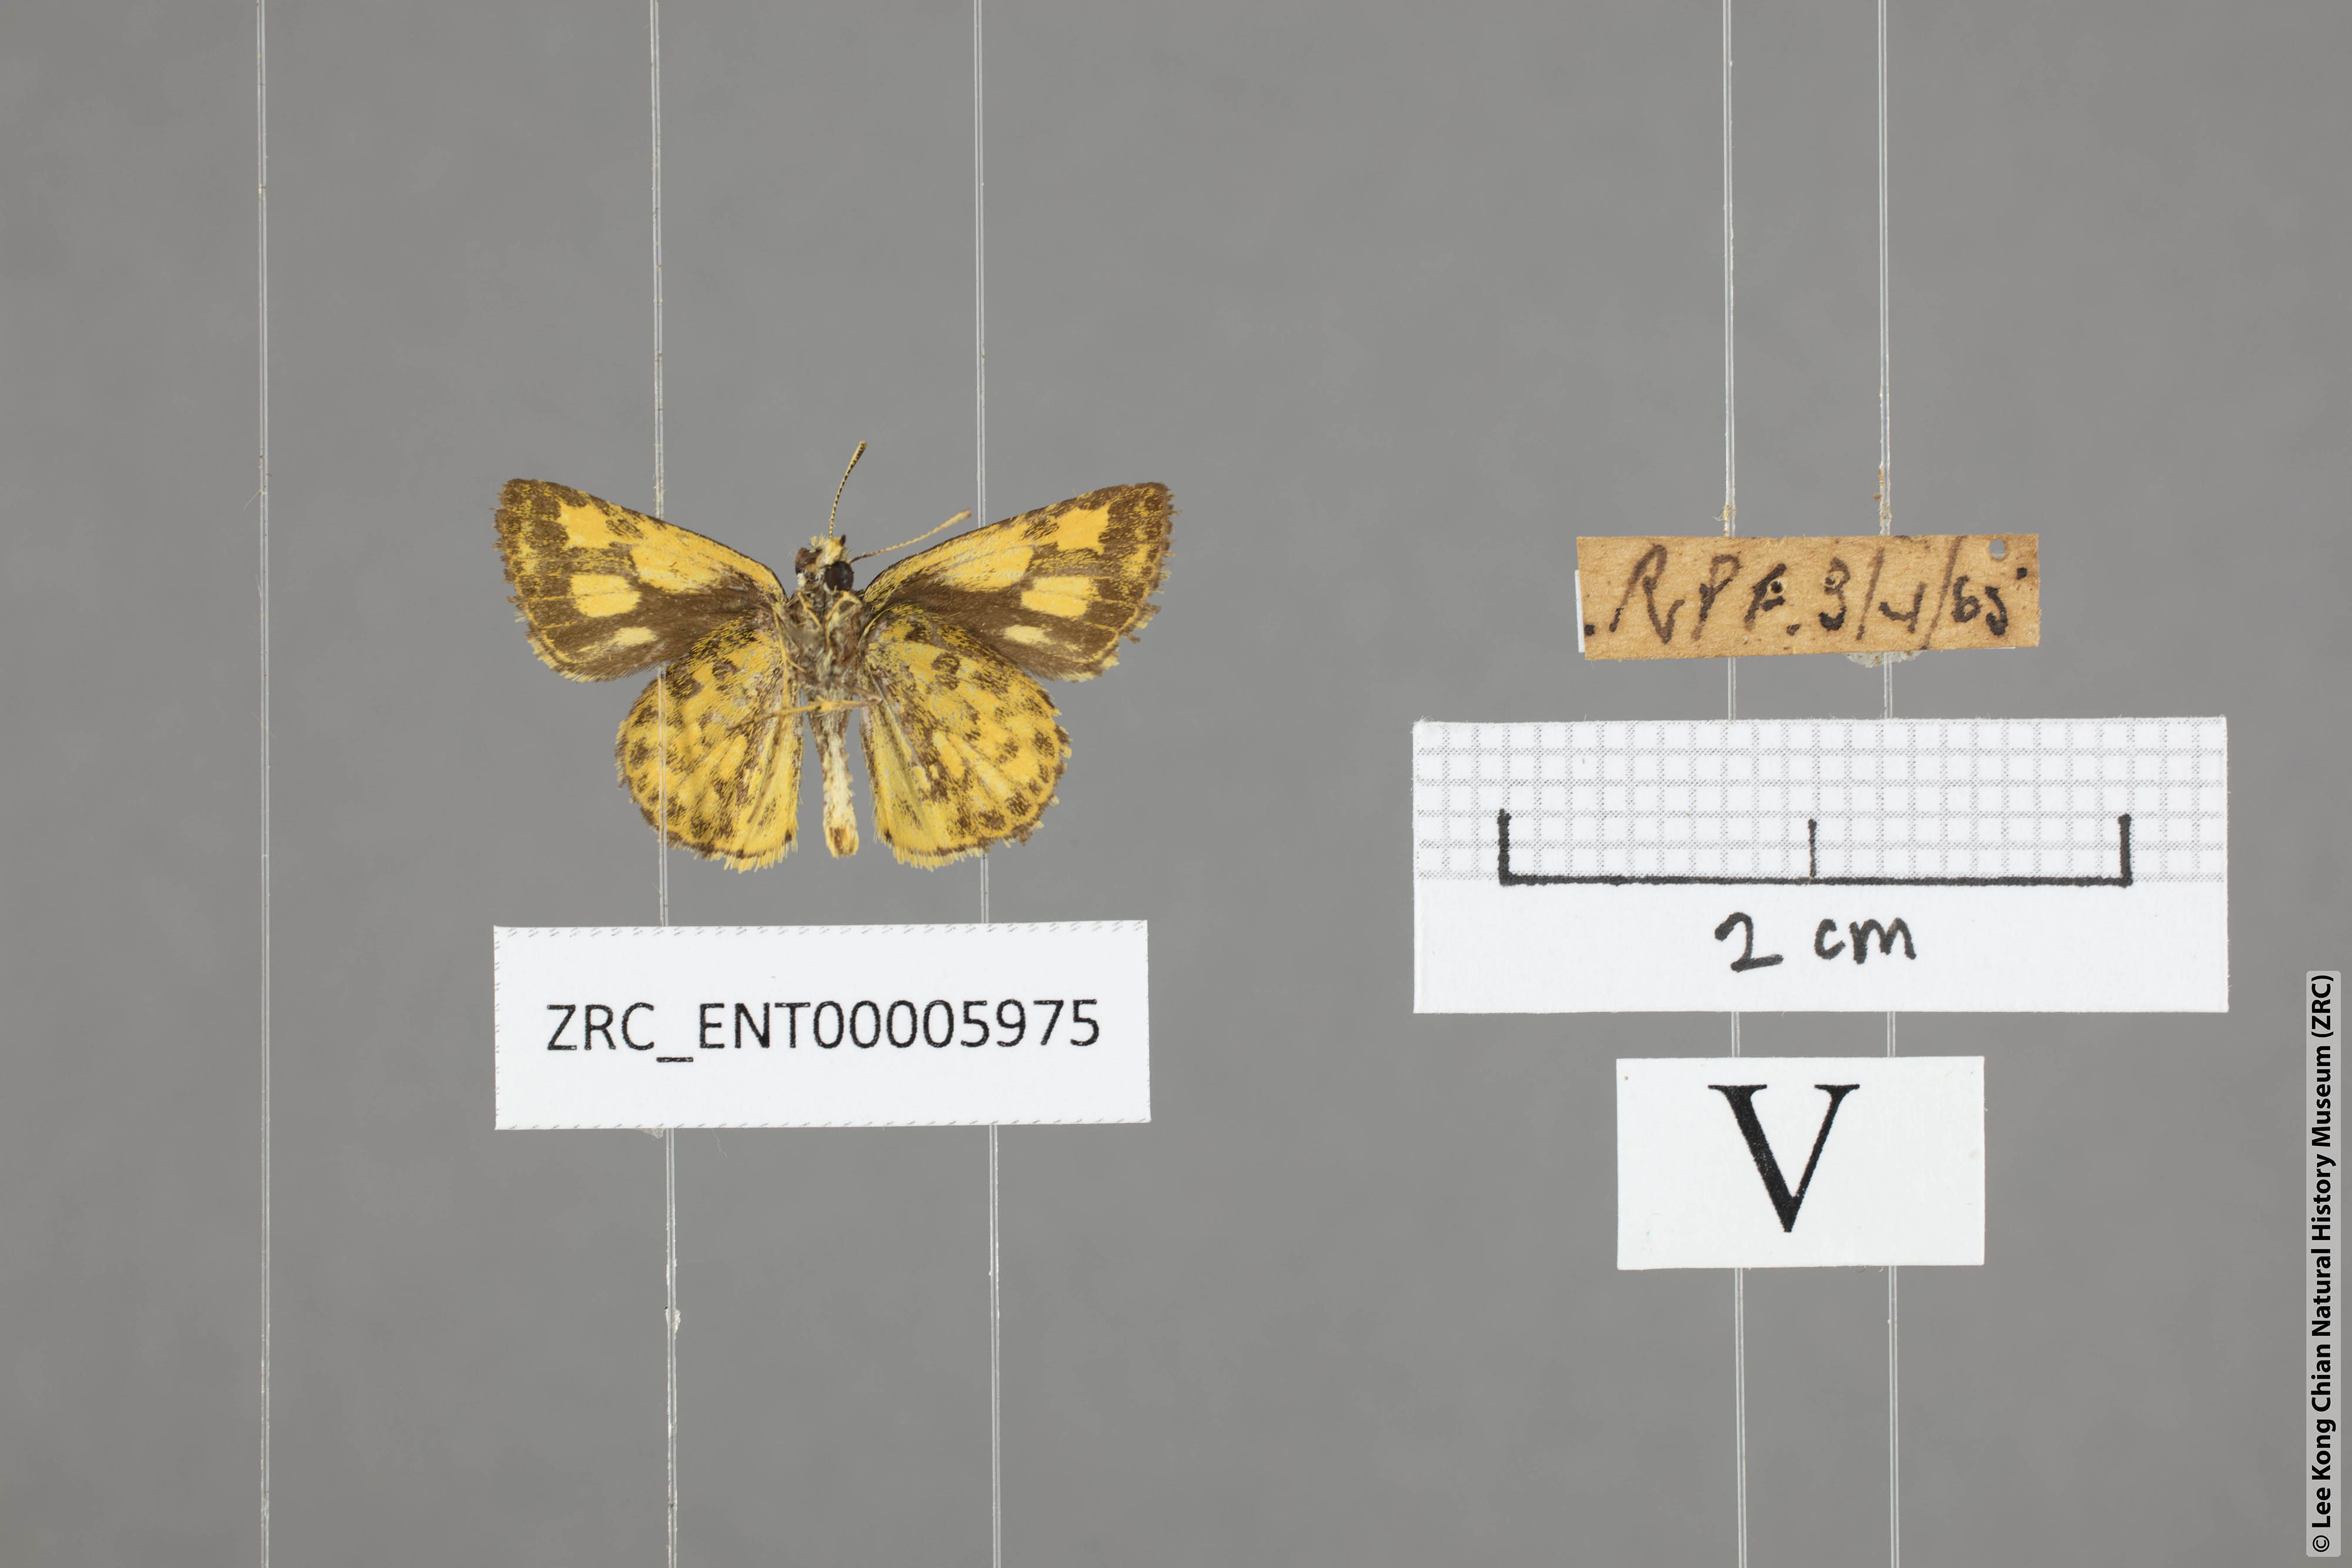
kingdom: Animalia
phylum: Arthropoda
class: Insecta
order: Lepidoptera
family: Hesperiidae
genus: Ampittia
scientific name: Ampittia dioscorides
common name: Common bush hopper
